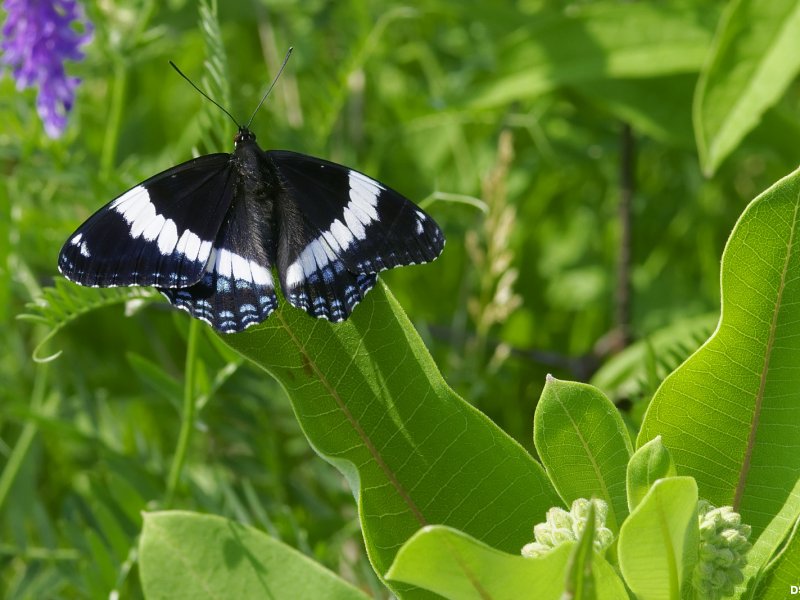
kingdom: Animalia
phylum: Arthropoda
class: Insecta
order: Lepidoptera
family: Nymphalidae
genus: Limenitis
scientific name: Limenitis arthemis
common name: Red-spotted Admiral
